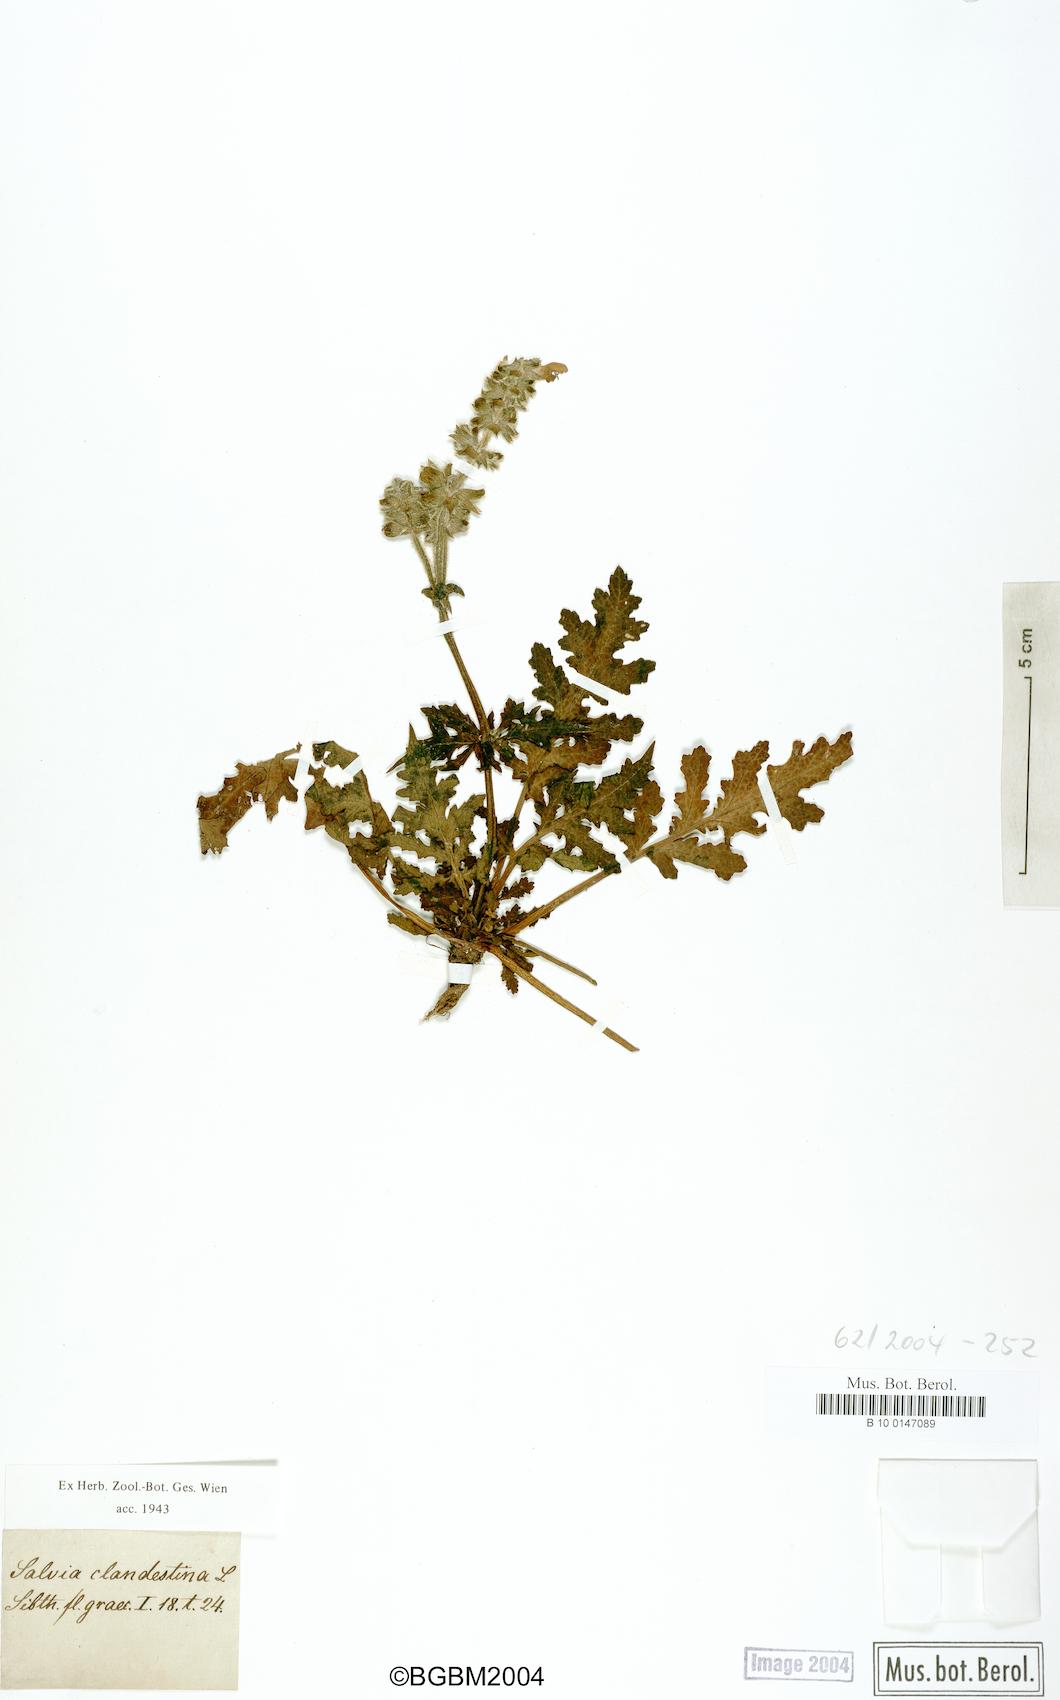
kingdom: Plantae
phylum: Tracheophyta
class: Magnoliopsida
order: Lamiales
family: Lamiaceae
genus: Salvia
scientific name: Salvia verbenaca
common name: Wild clary
